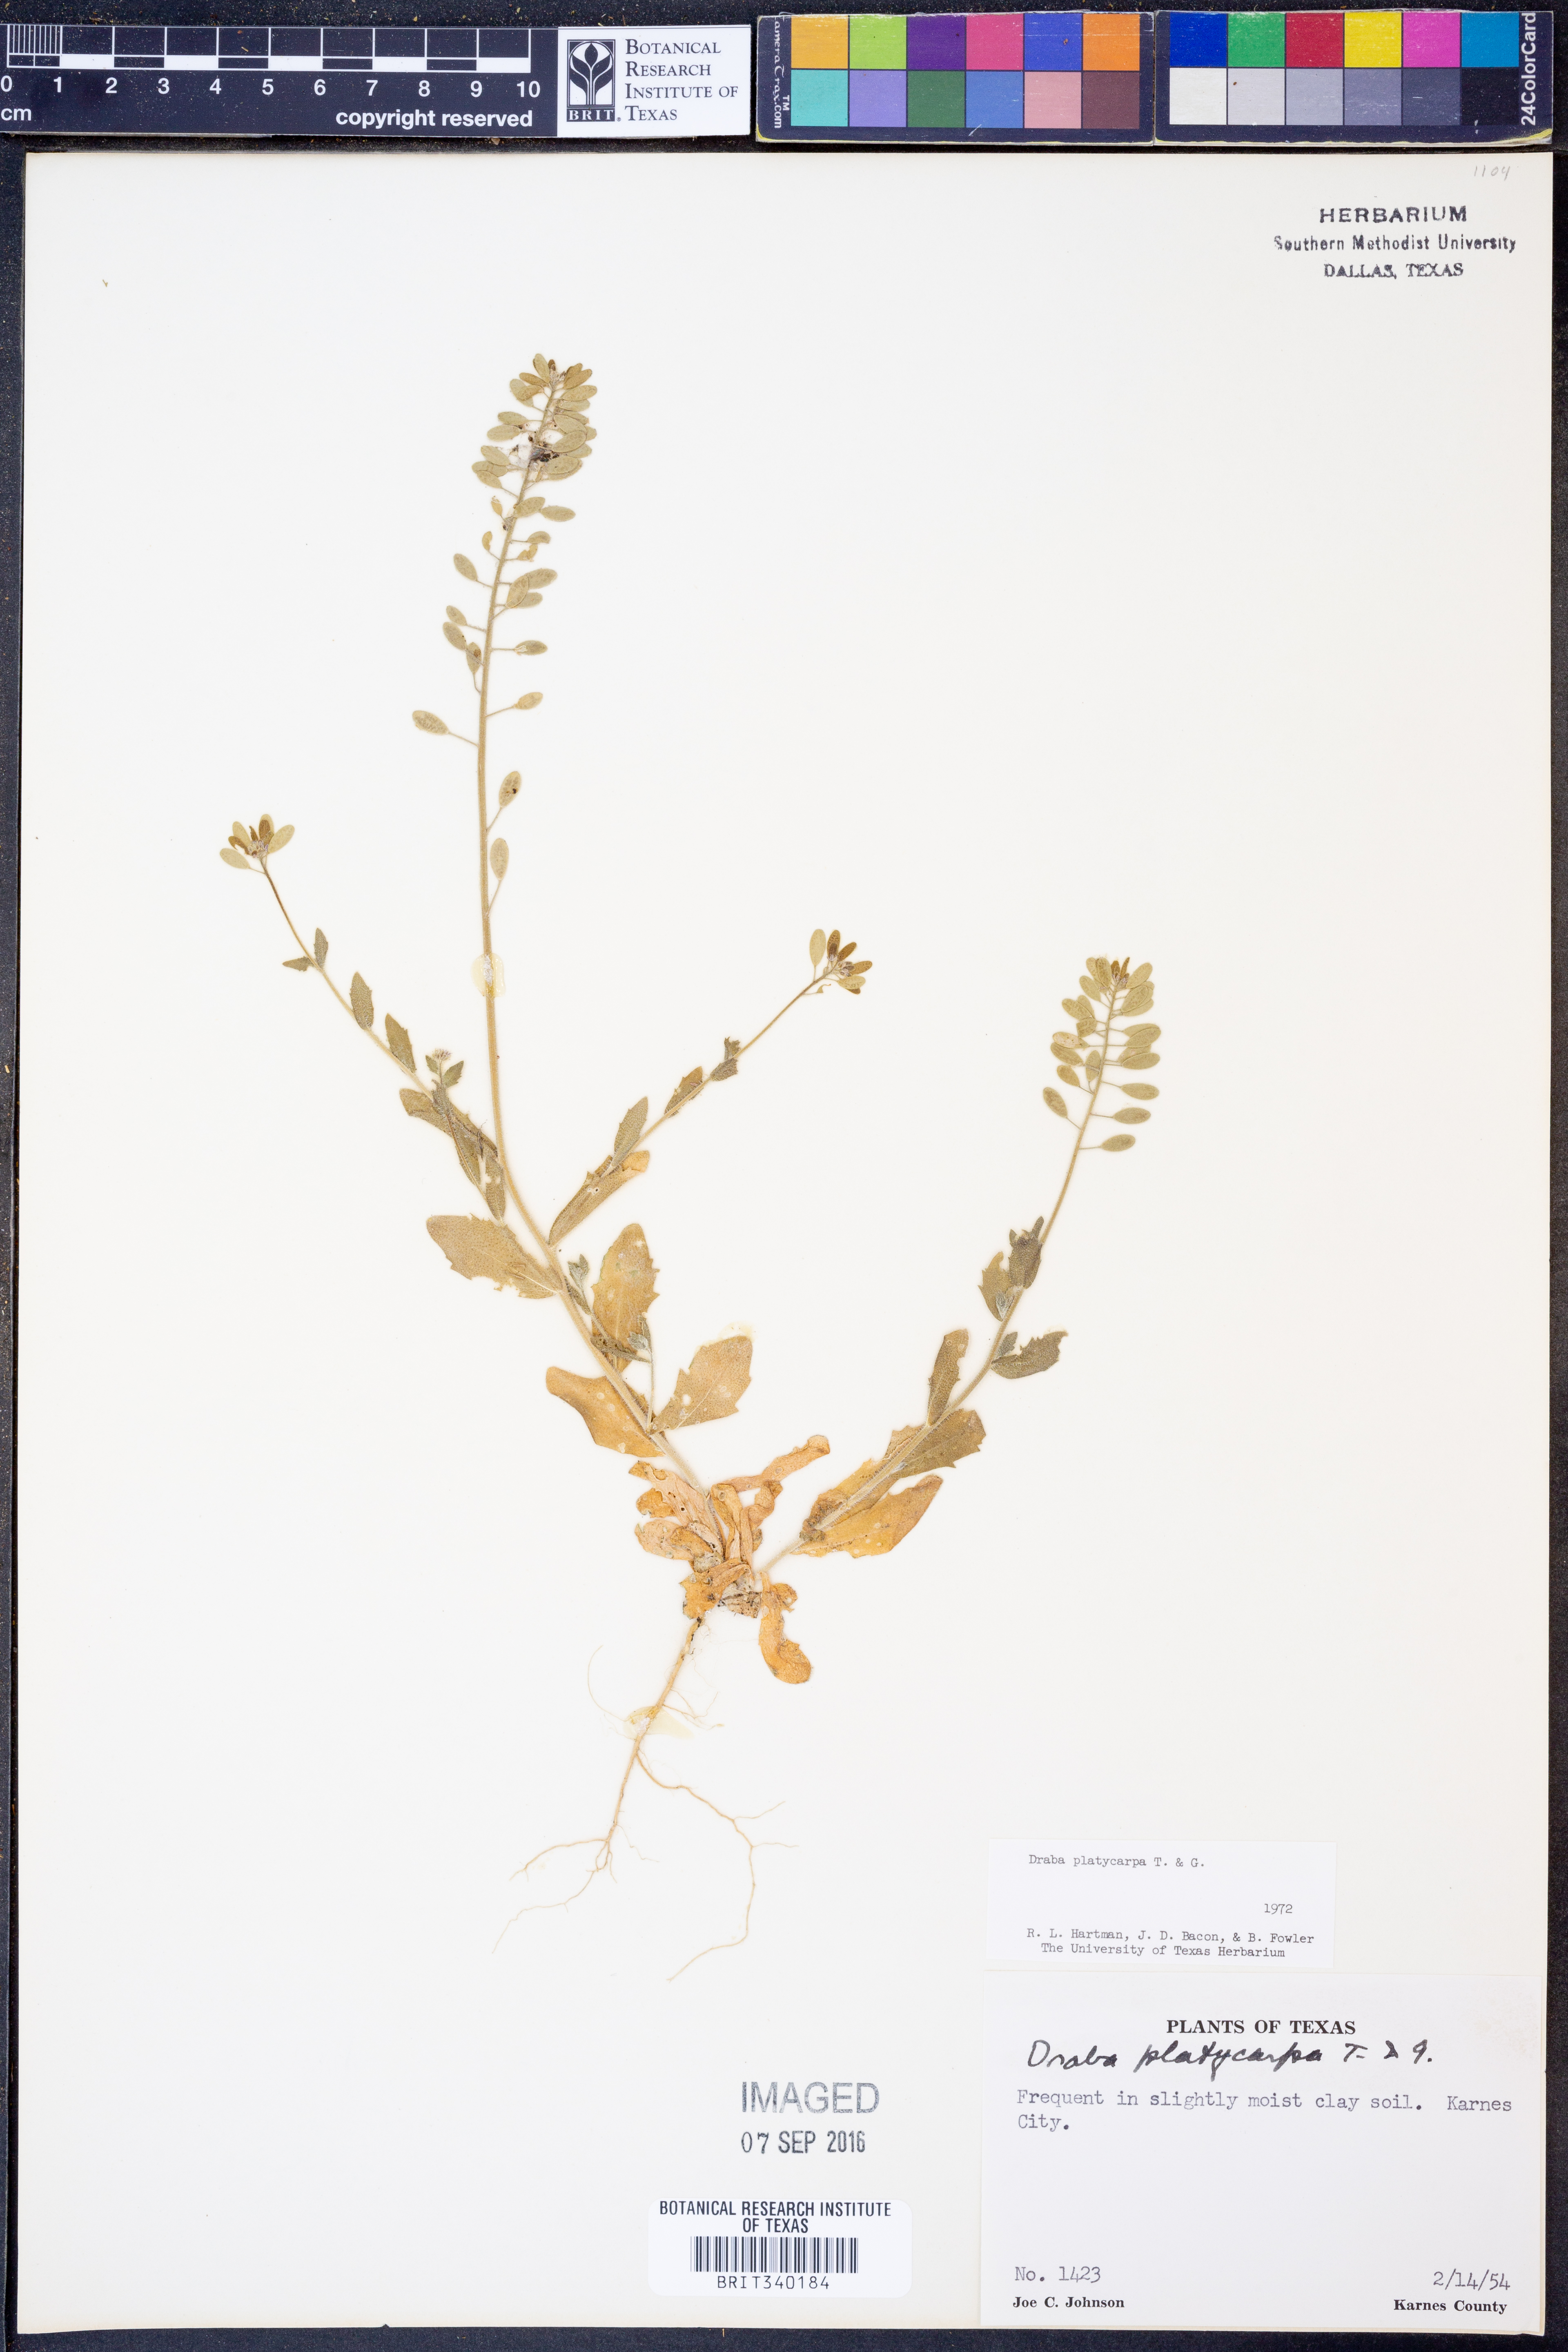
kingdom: Plantae
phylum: Tracheophyta
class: Magnoliopsida
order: Brassicales
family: Brassicaceae
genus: Tomostima
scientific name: Tomostima platycarpa
